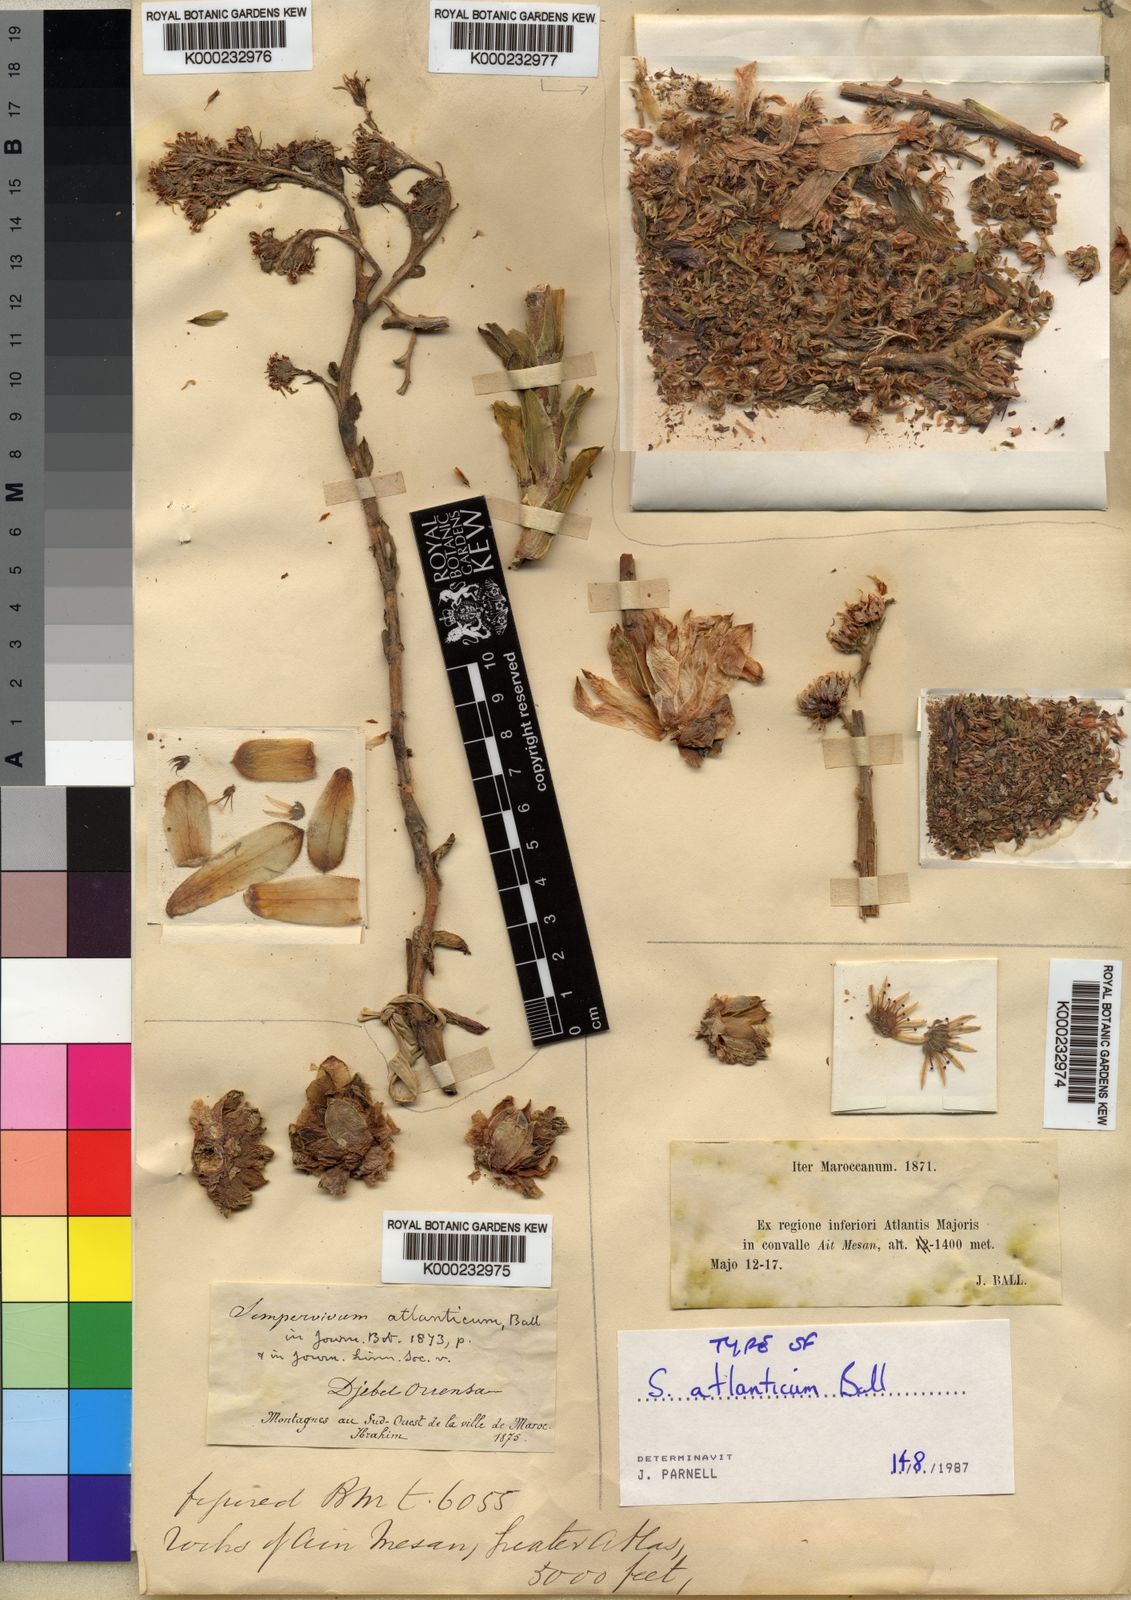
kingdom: Plantae
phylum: Tracheophyta
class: Magnoliopsida
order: Saxifragales
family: Crassulaceae
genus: Sempervivum
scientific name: Sempervivum
